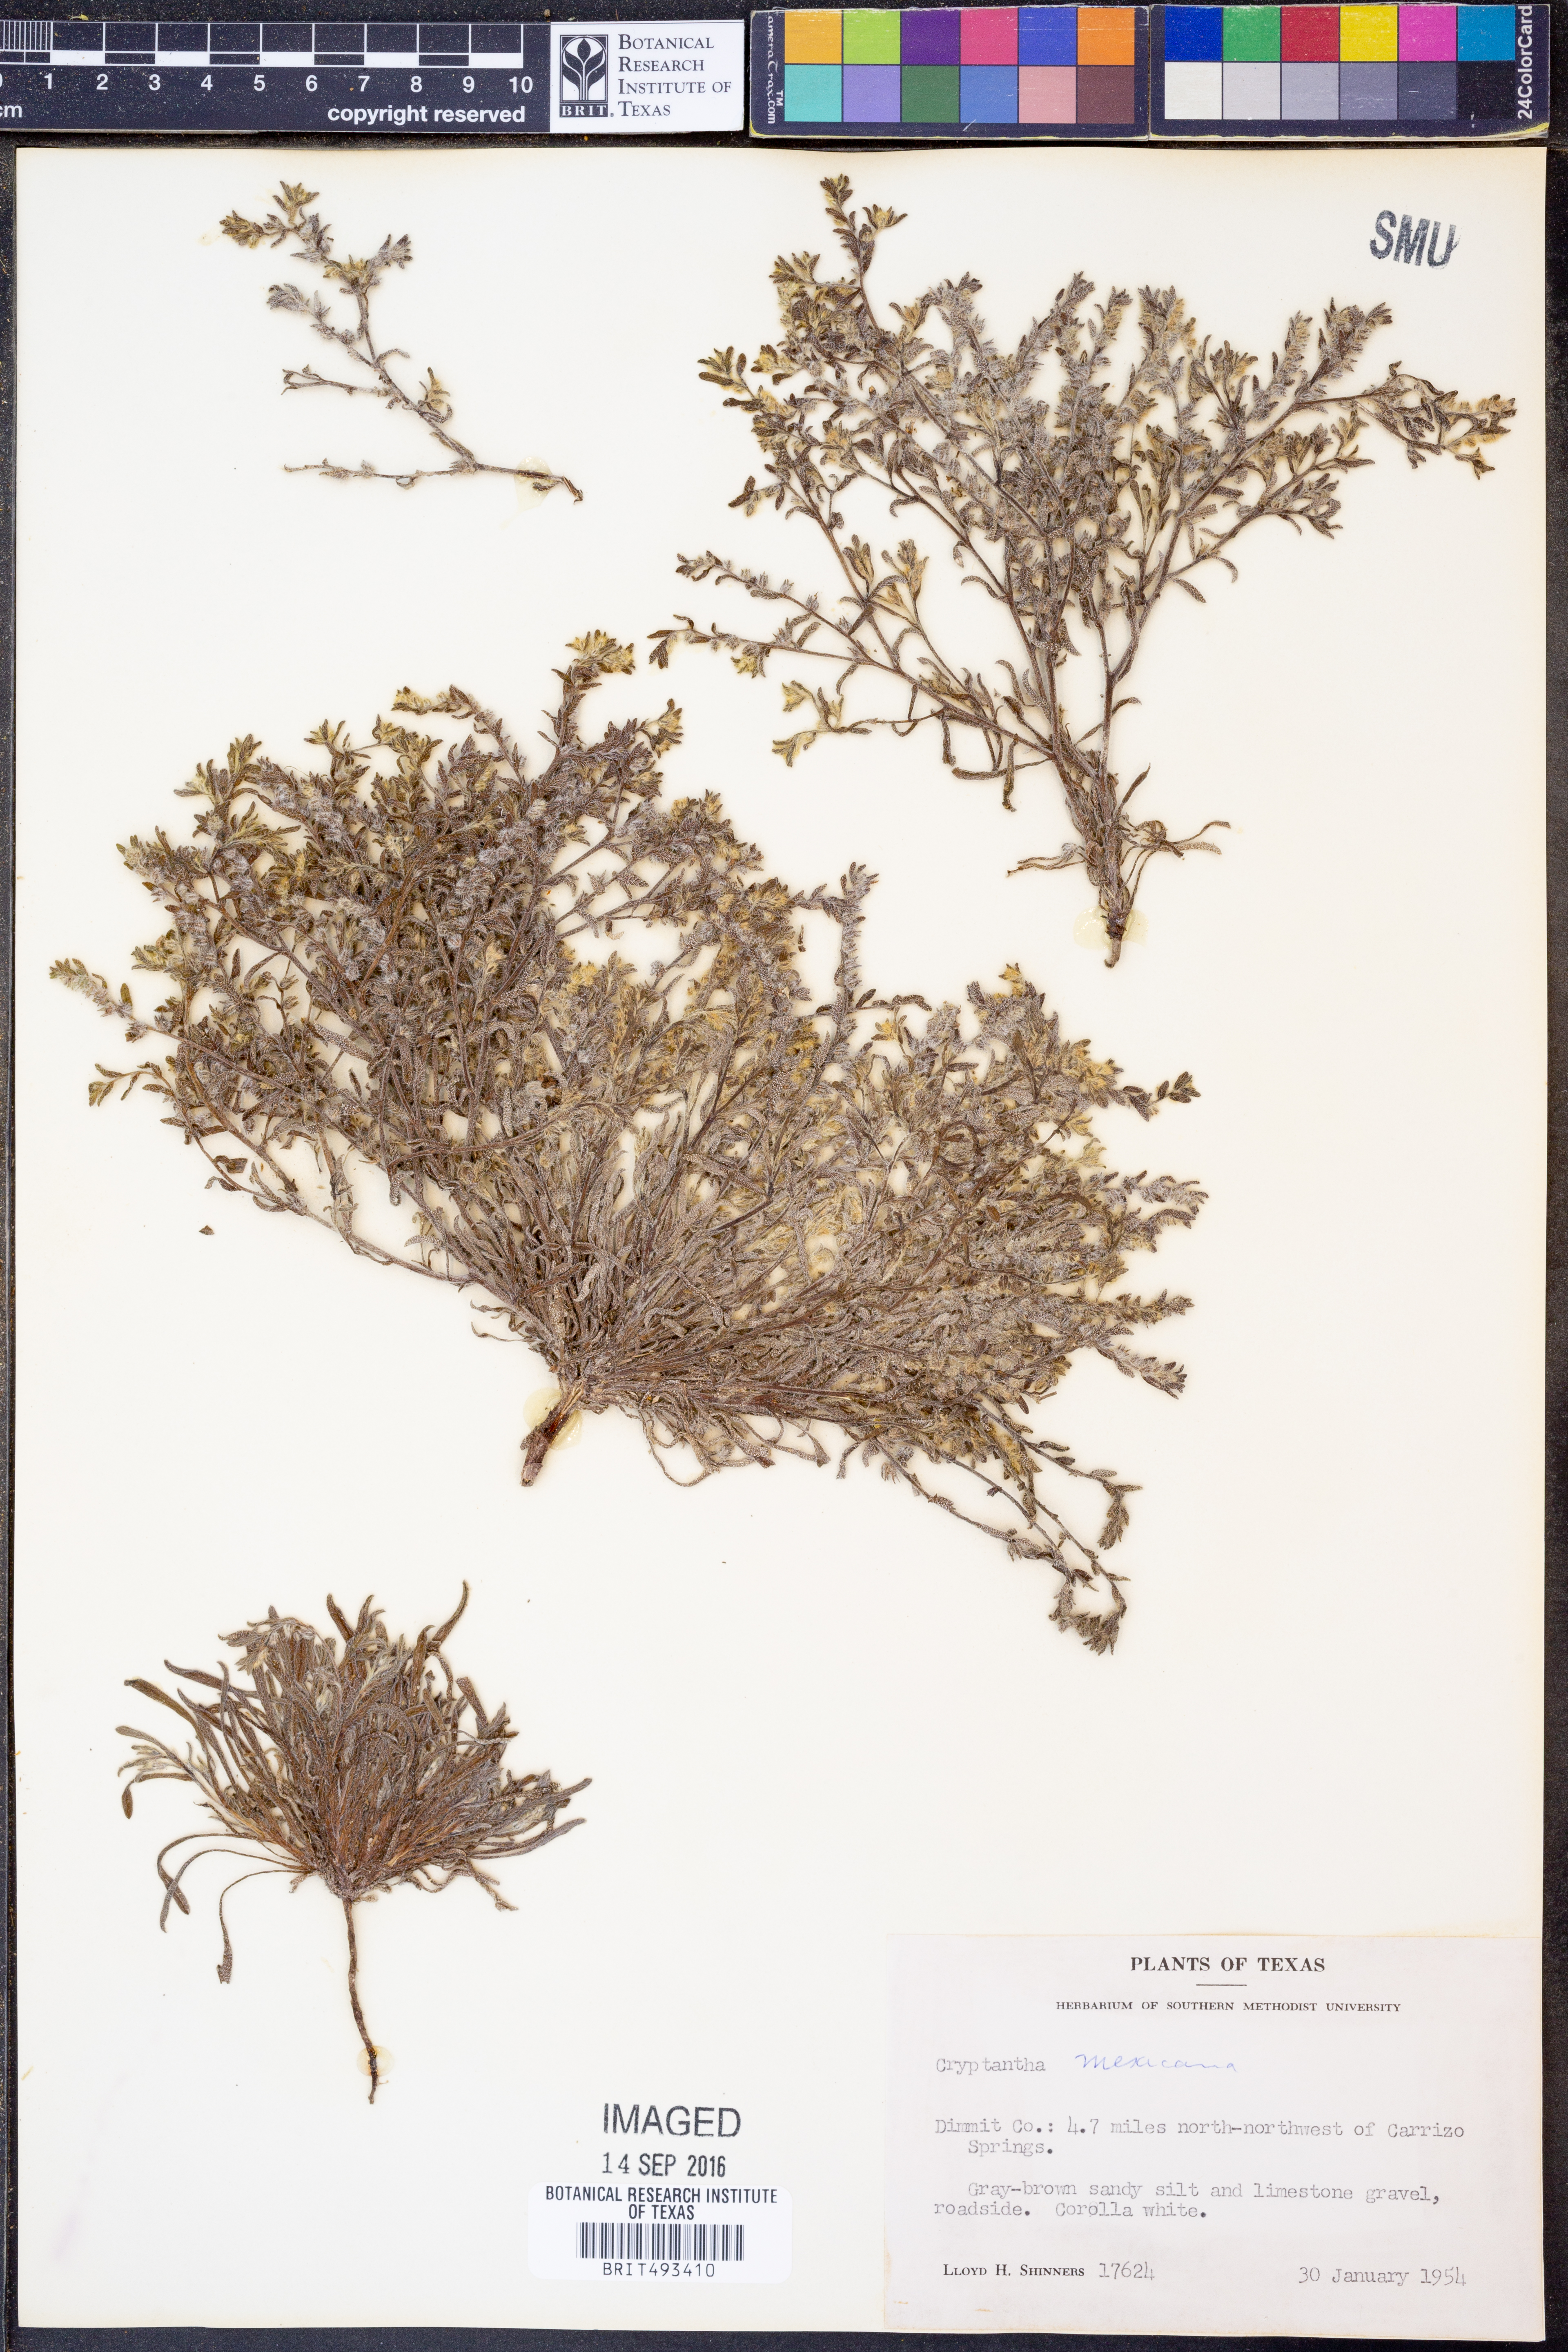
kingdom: Plantae
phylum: Tracheophyta
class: Magnoliopsida
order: Boraginales
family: Boraginaceae
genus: Johnstonella
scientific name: Johnstonella mexicana
